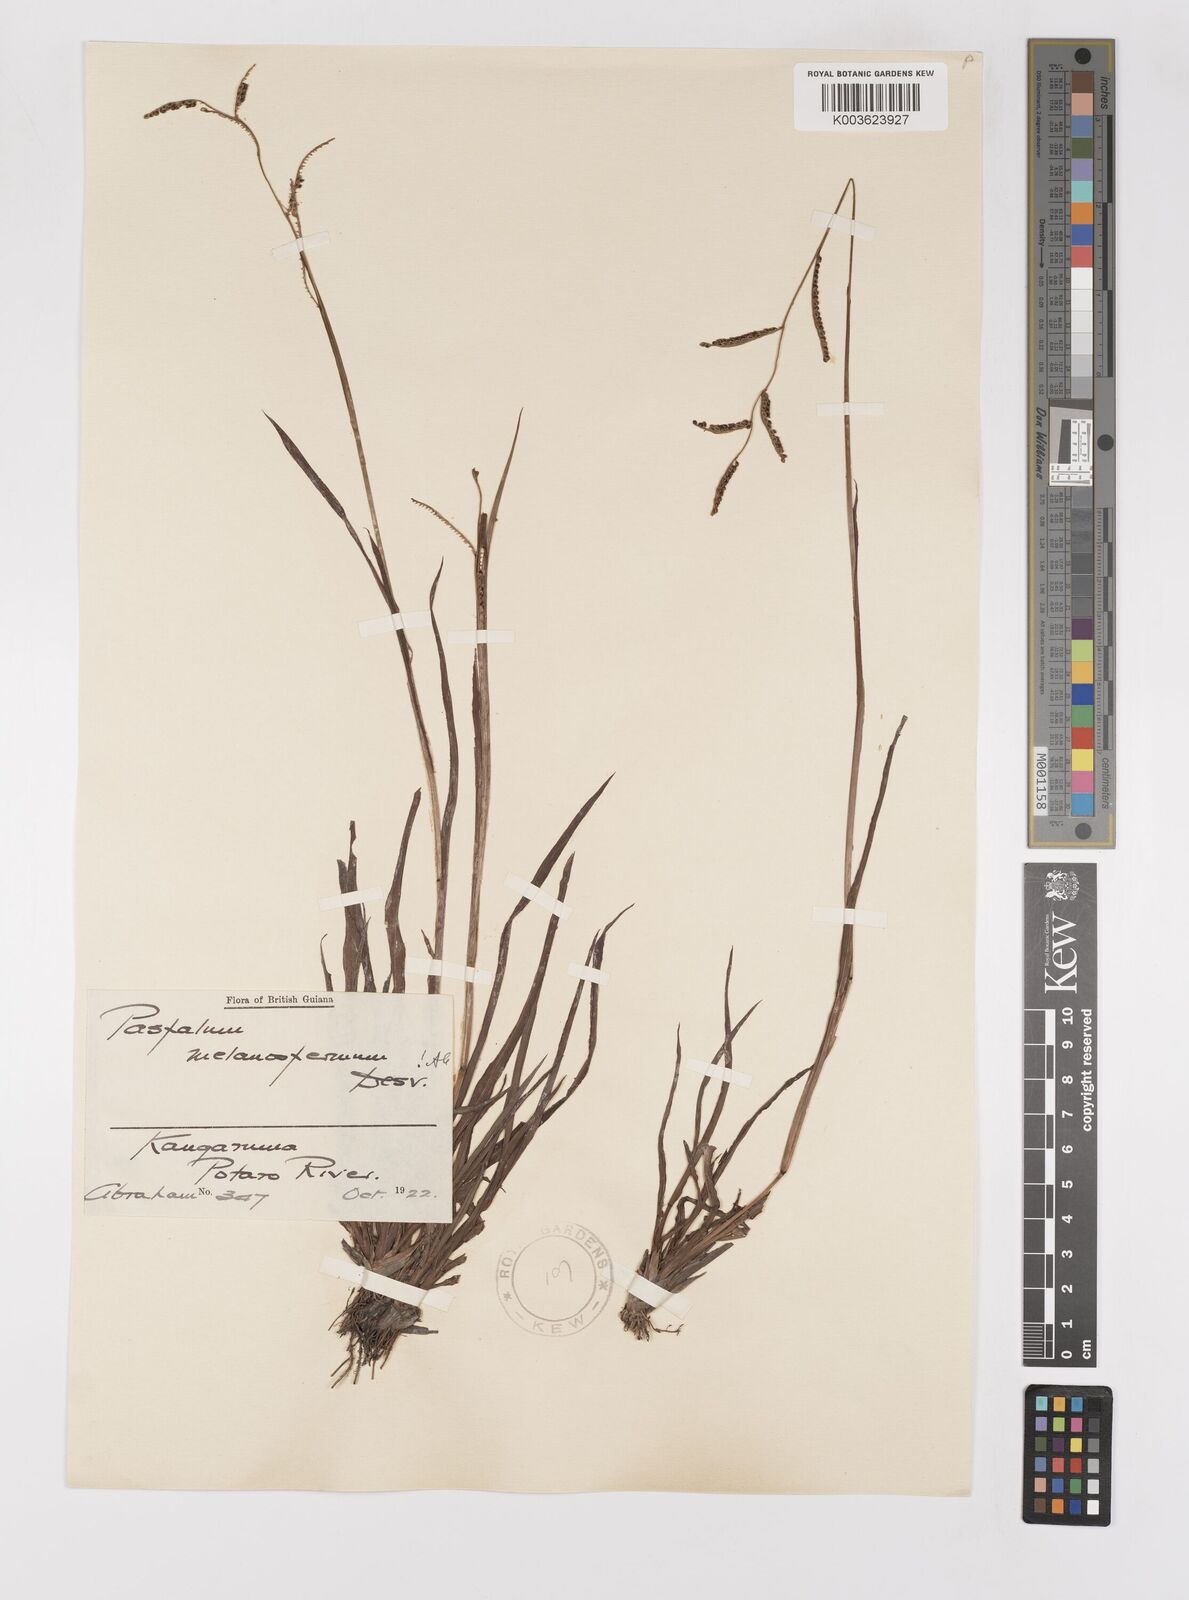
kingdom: Plantae
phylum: Tracheophyta
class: Liliopsida
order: Poales
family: Poaceae
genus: Paspalum
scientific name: Paspalum melanospermum
